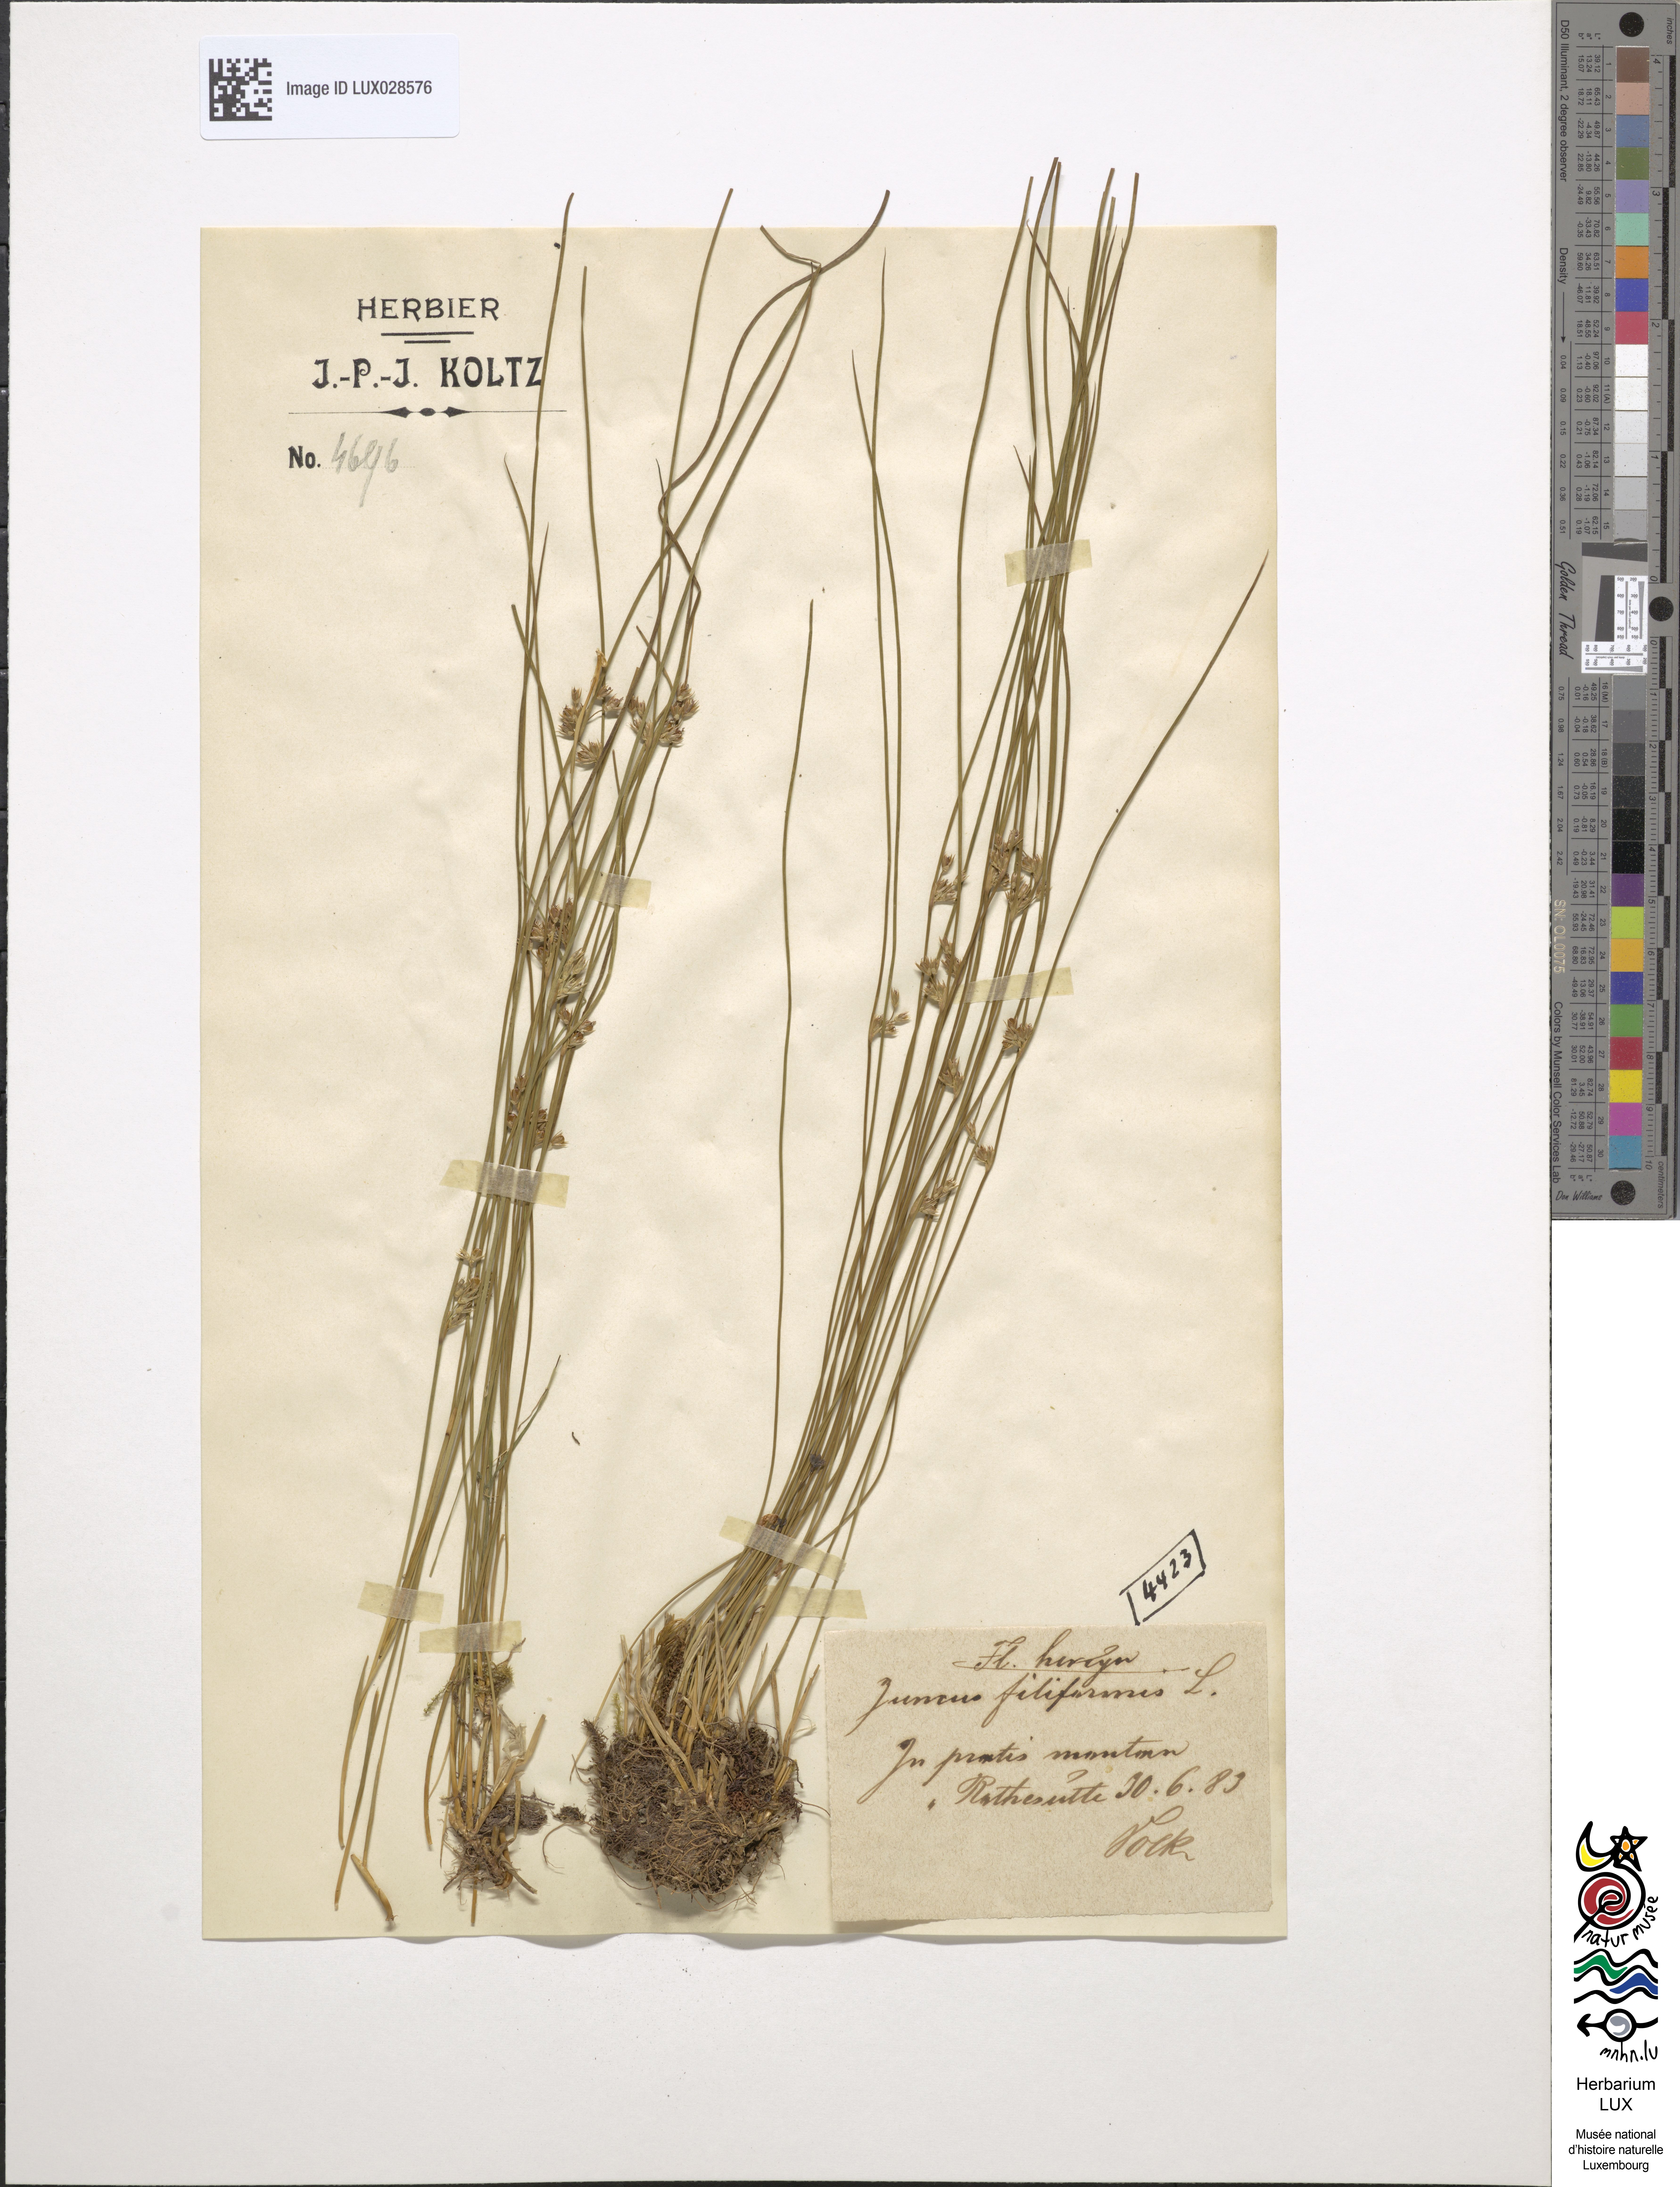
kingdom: Plantae
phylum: Tracheophyta
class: Liliopsida
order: Poales
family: Juncaceae
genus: Juncus
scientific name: Juncus filiformis
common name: Thread rush
